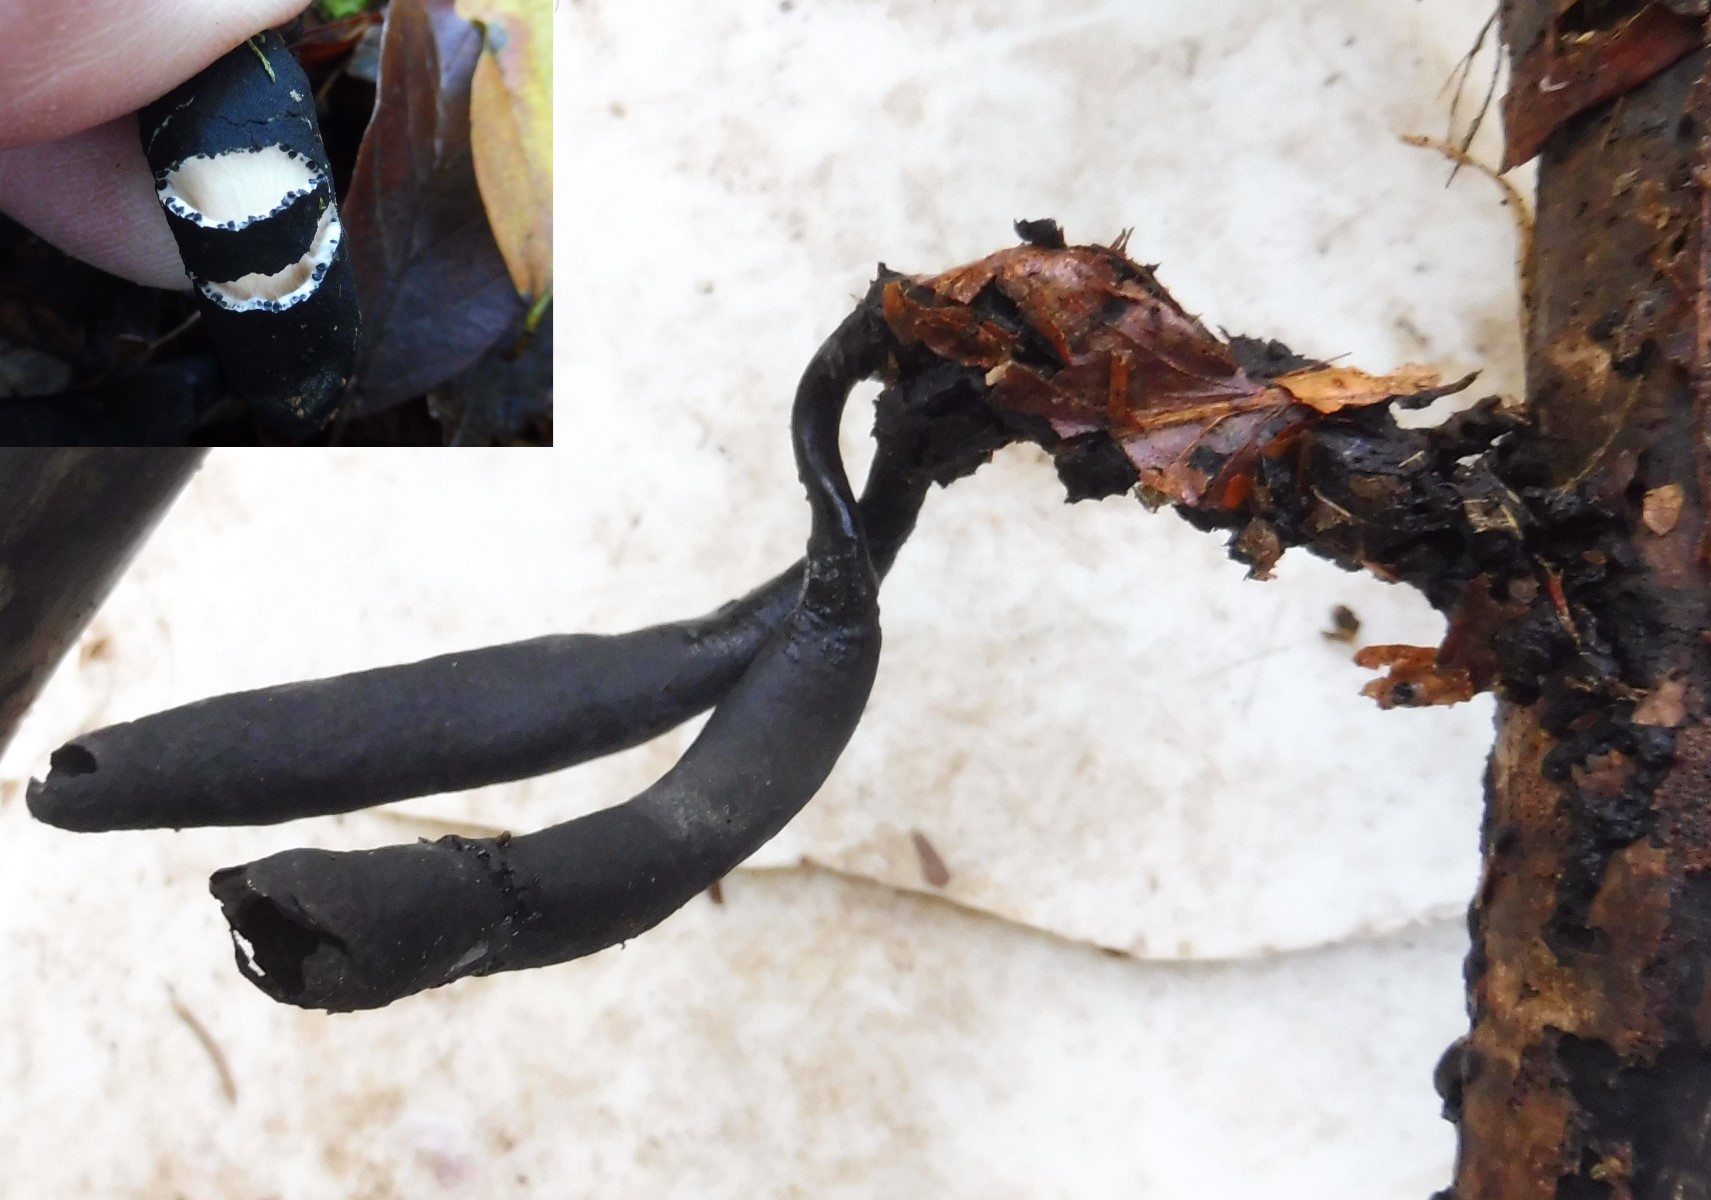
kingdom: Fungi
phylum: Ascomycota
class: Sordariomycetes
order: Xylariales
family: Xylariaceae
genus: Xylaria
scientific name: Xylaria longipes
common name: slank stødsvamp
